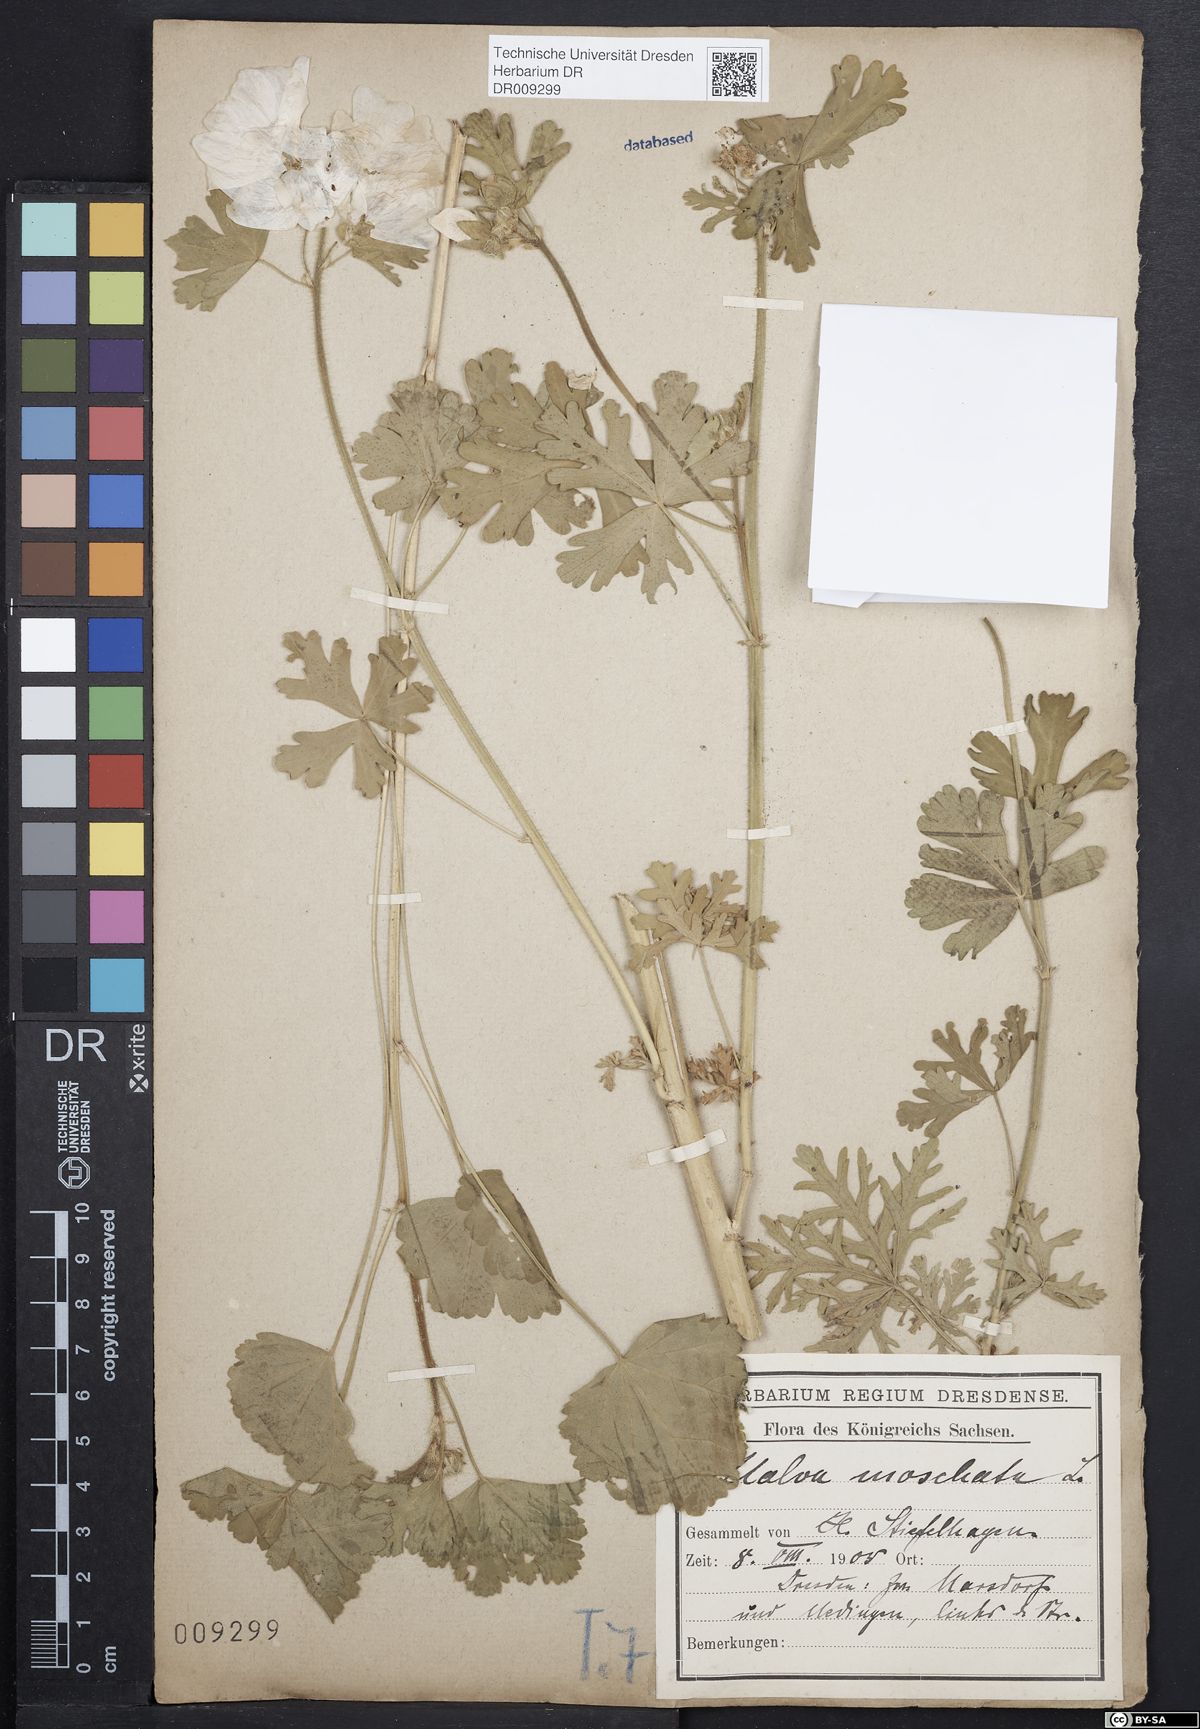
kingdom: Plantae
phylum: Tracheophyta
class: Magnoliopsida
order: Malvales
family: Malvaceae
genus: Malva
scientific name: Malva moschata
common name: Musk mallow
